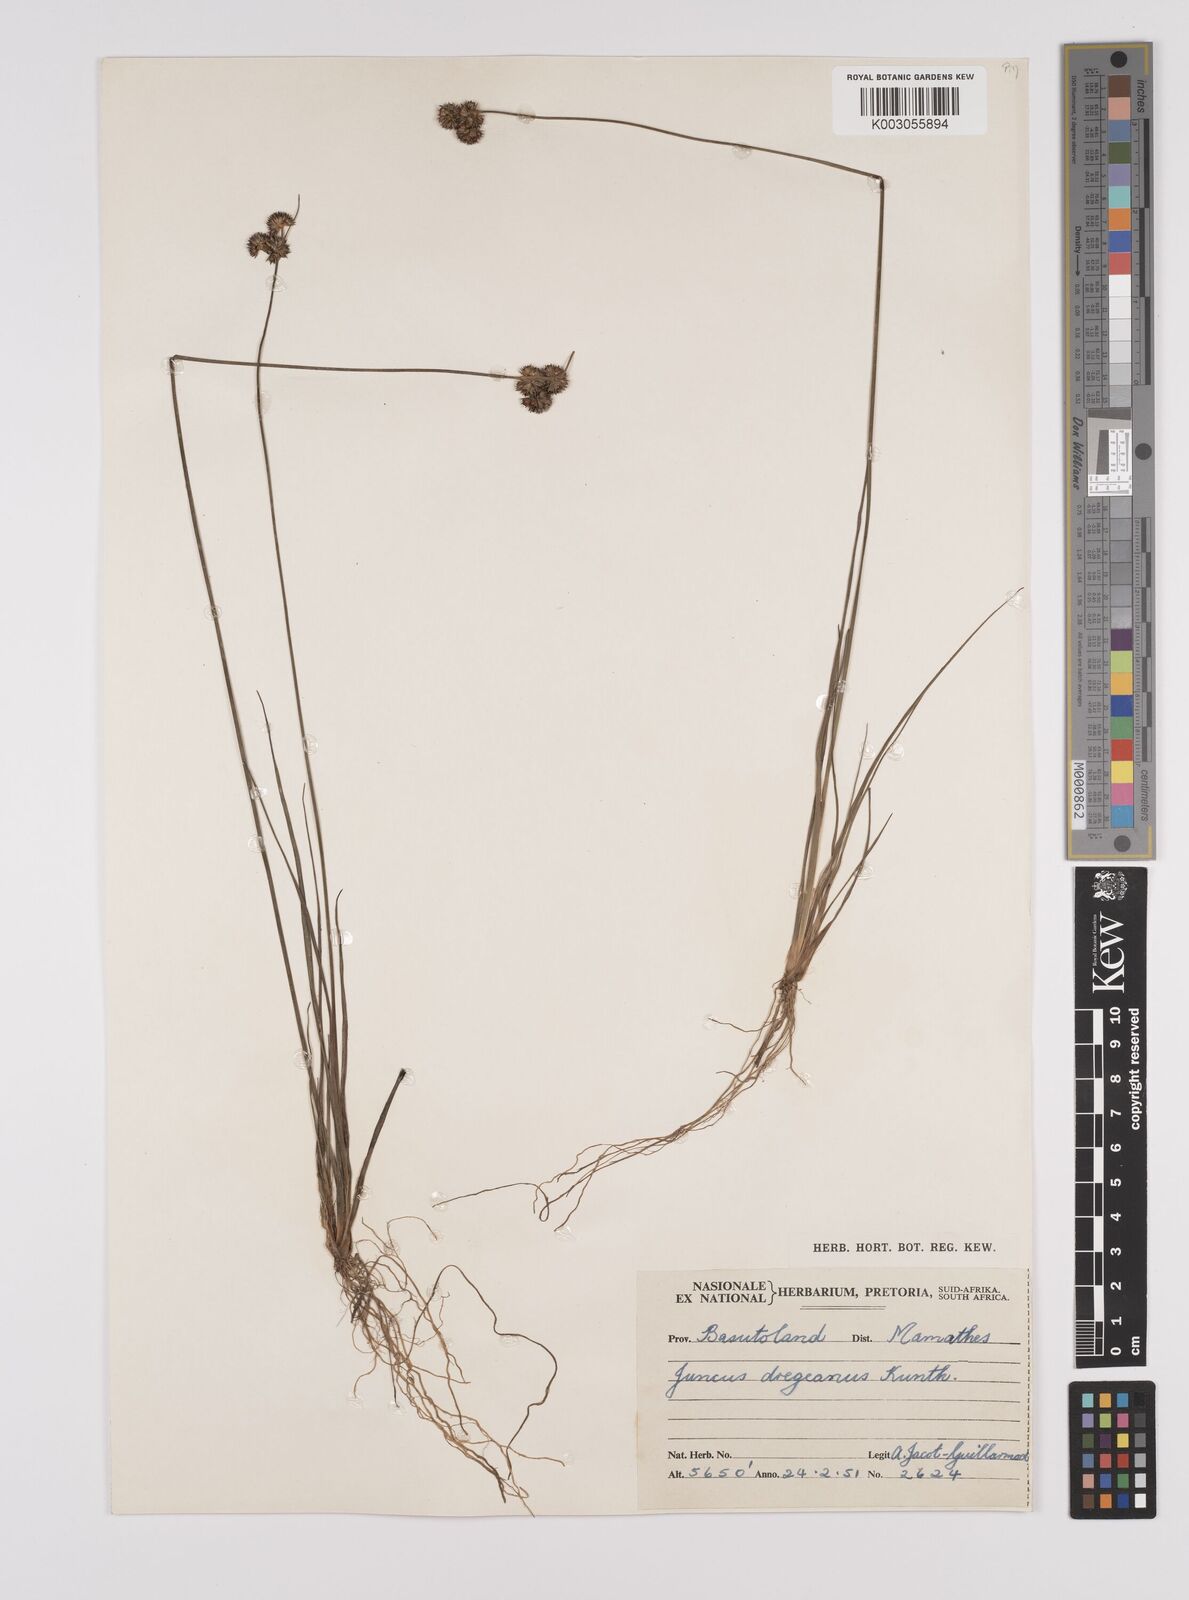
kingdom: Plantae
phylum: Tracheophyta
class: Liliopsida
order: Poales
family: Juncaceae
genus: Juncus
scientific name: Juncus dregeanus
